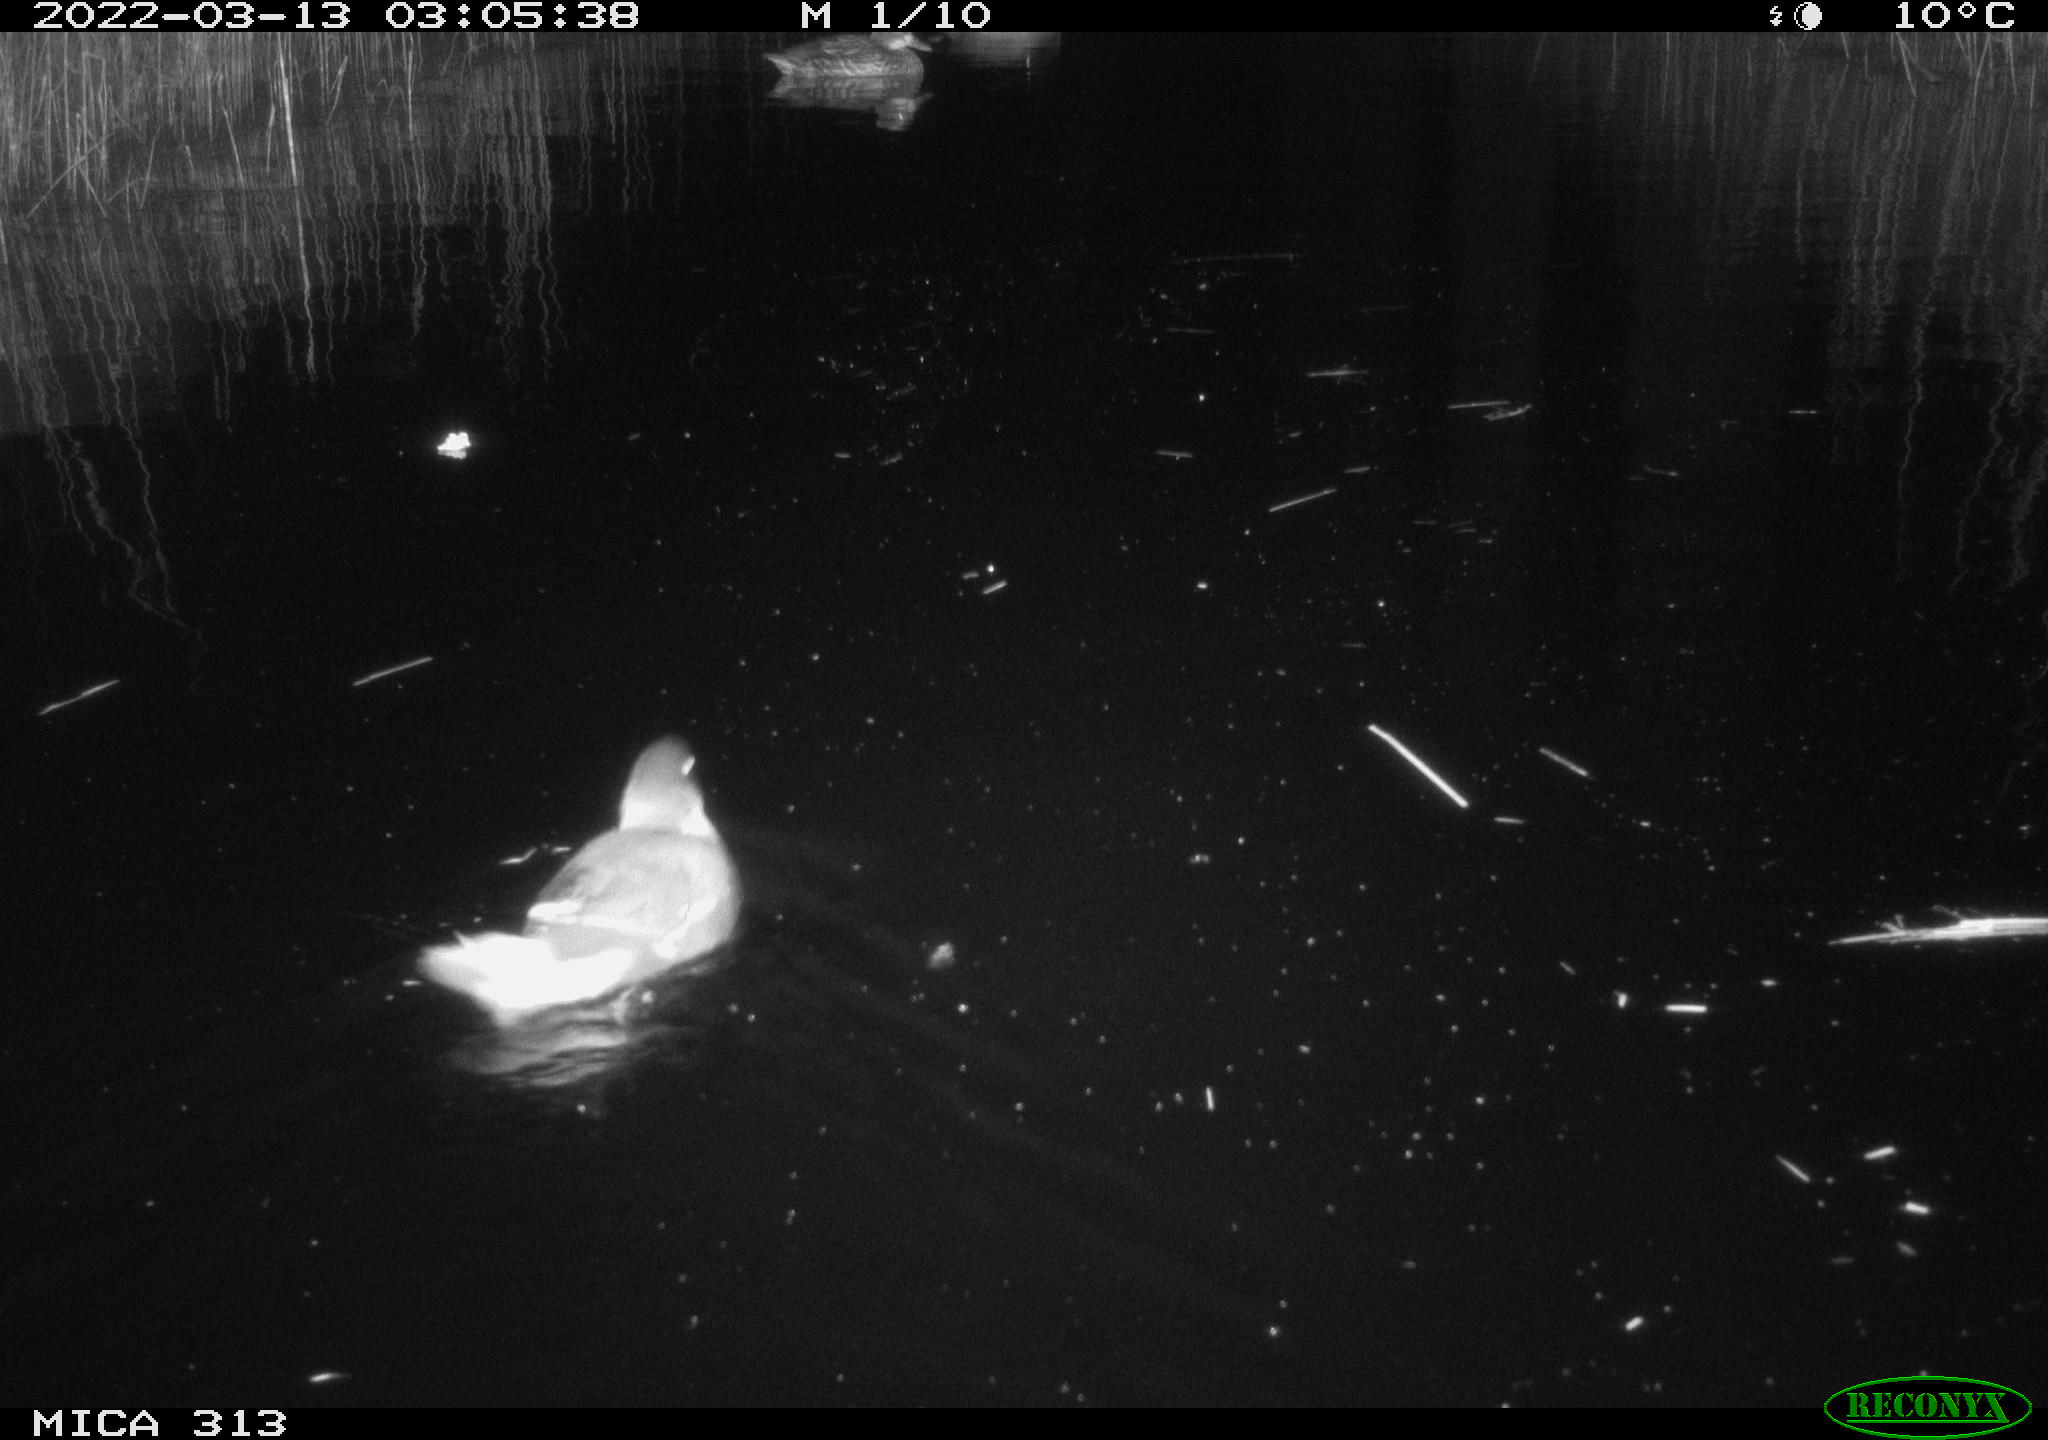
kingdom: Animalia
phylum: Chordata
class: Aves
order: Gruiformes
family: Rallidae
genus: Gallinula
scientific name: Gallinula chloropus
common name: Common moorhen
